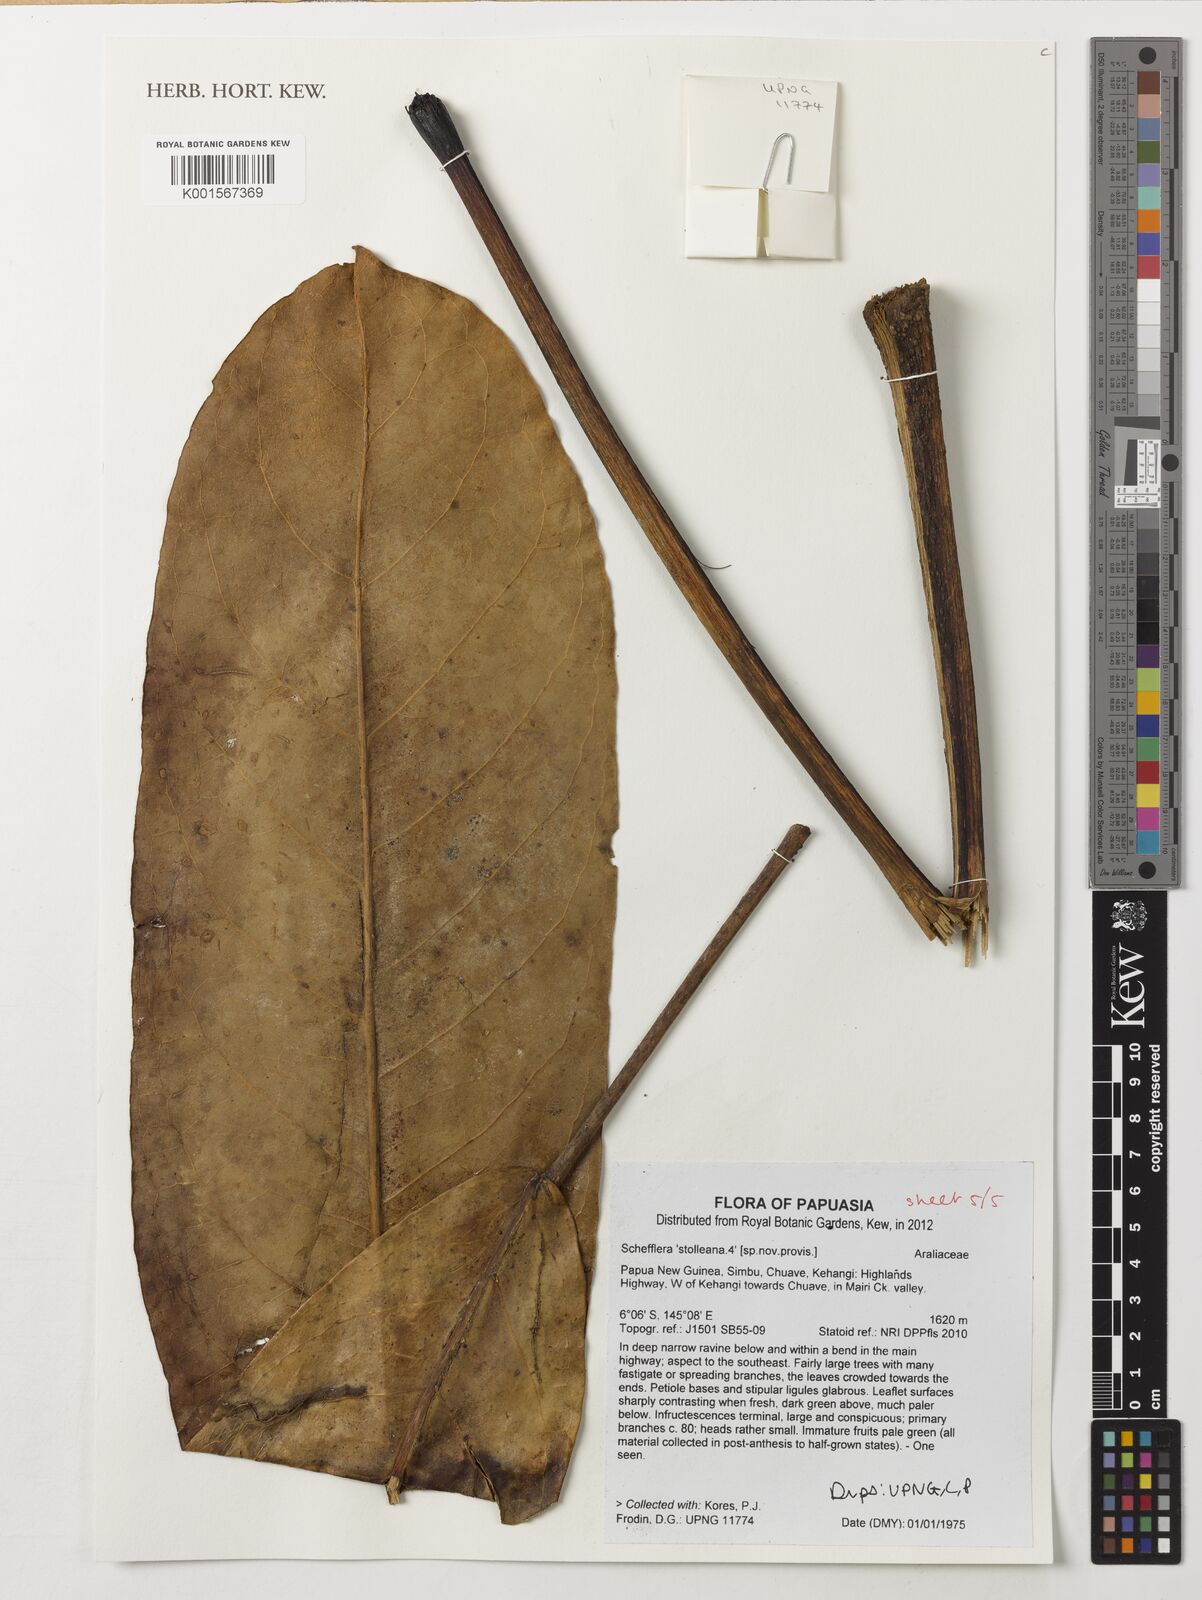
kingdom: Plantae
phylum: Tracheophyta
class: Magnoliopsida
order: Apiales
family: Araliaceae
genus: Heptapleurum
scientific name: Heptapleurum stolleanum
